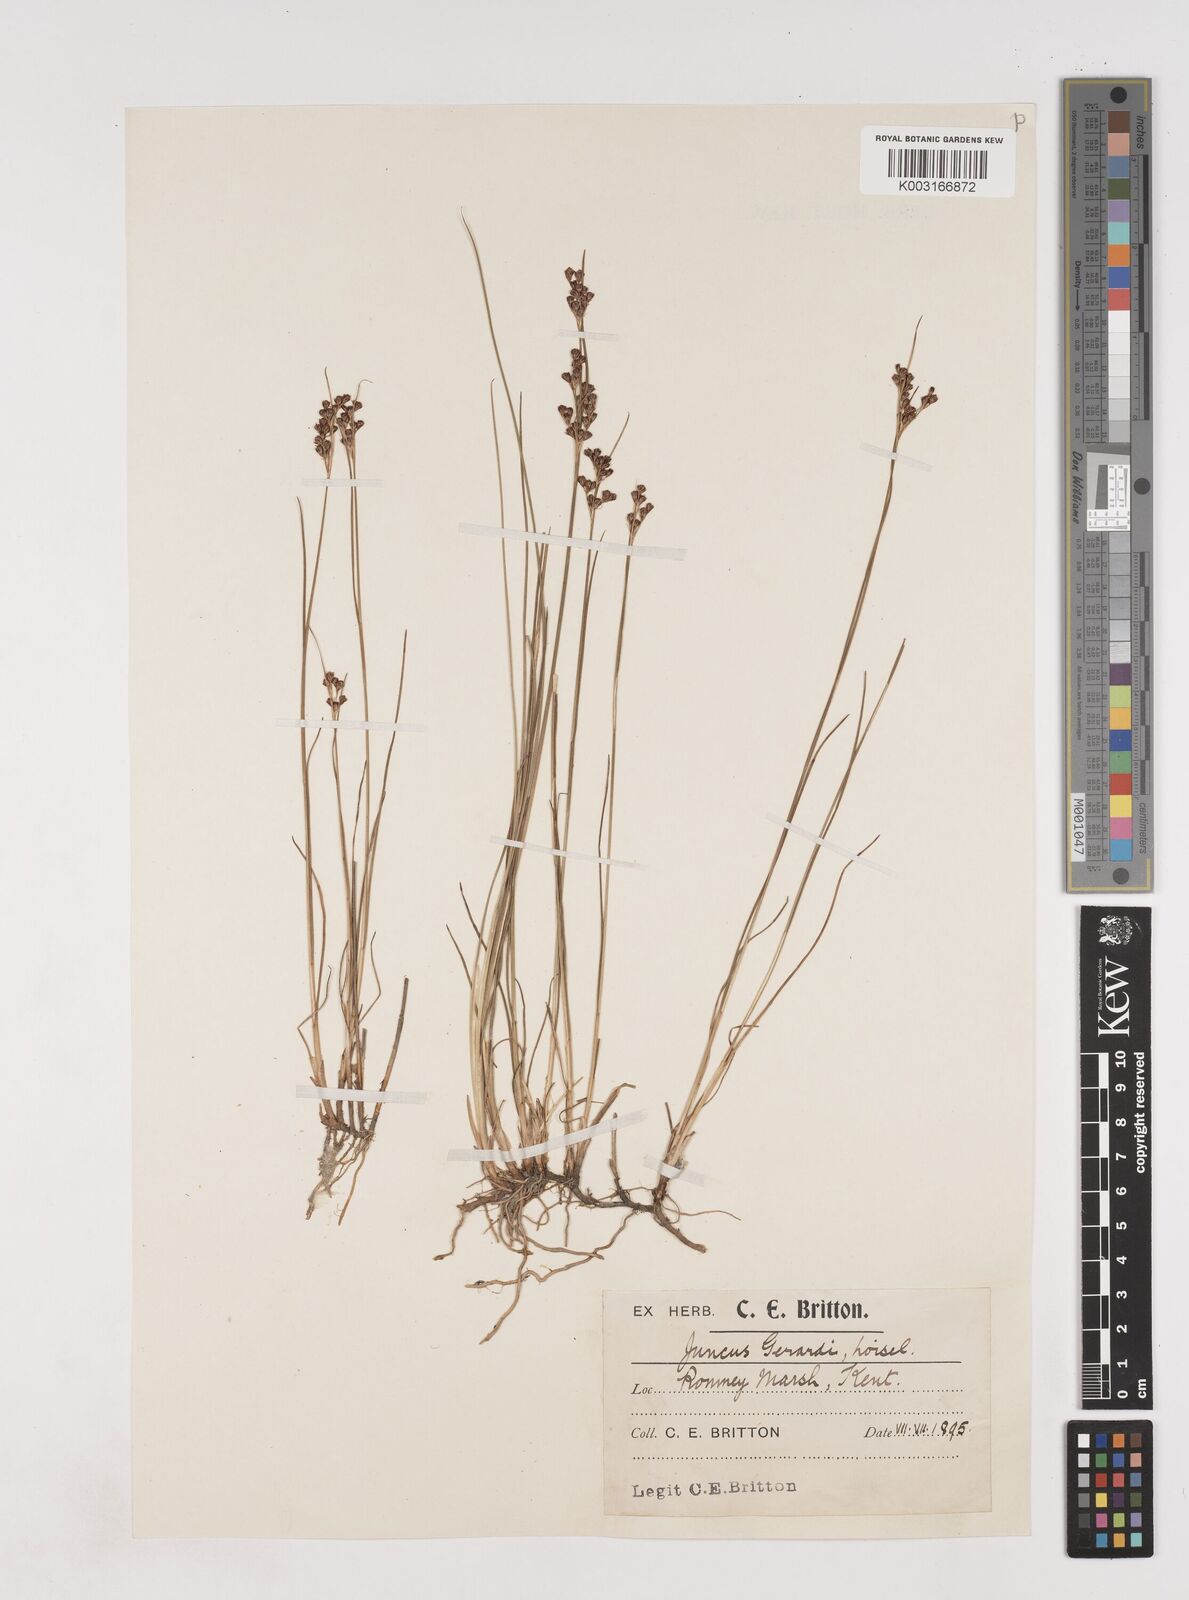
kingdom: Plantae
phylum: Tracheophyta
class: Liliopsida
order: Poales
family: Juncaceae
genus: Juncus
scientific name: Juncus gerardi
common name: Saltmarsh rush
